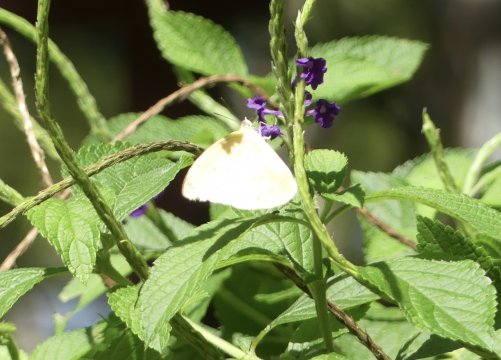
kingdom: Animalia
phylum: Arthropoda
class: Insecta
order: Lepidoptera
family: Pieridae
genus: Aphrissa
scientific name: Aphrissa neleis
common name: Pink-spot Sulphur
